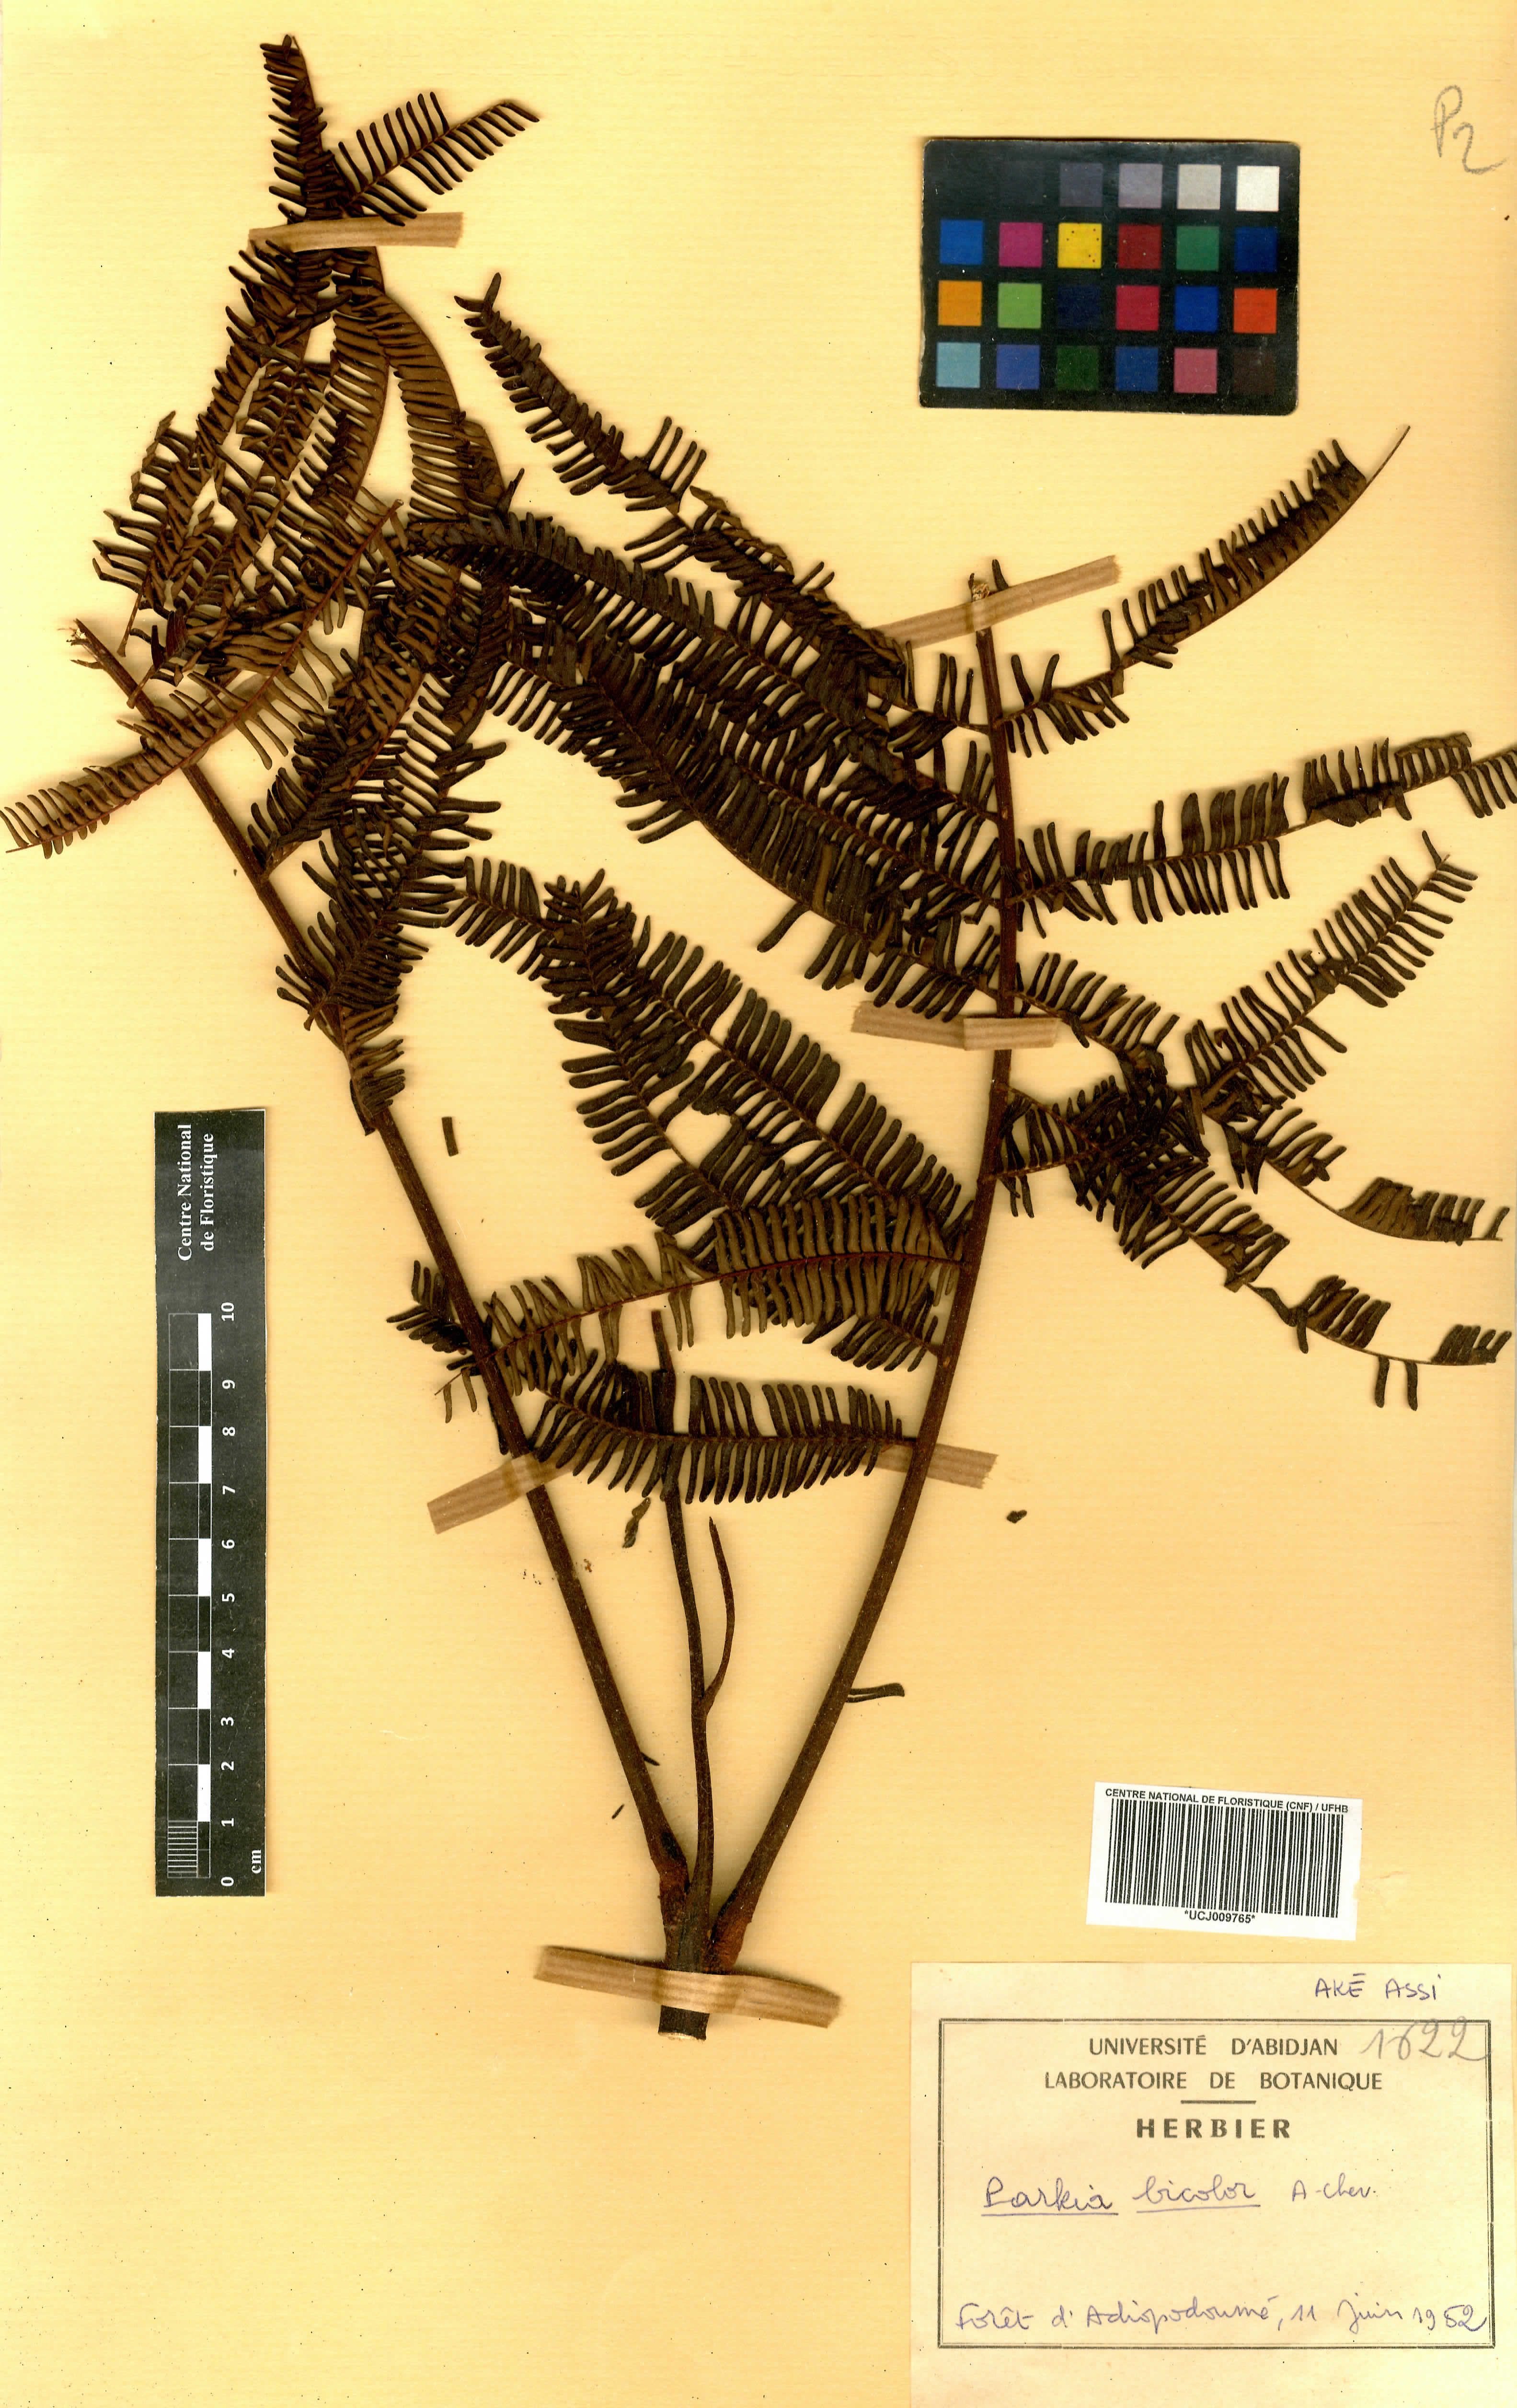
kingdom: Plantae
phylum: Tracheophyta
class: Magnoliopsida
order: Fabales
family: Fabaceae
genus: Parkia
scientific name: Parkia bicolor
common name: African locust-bean
